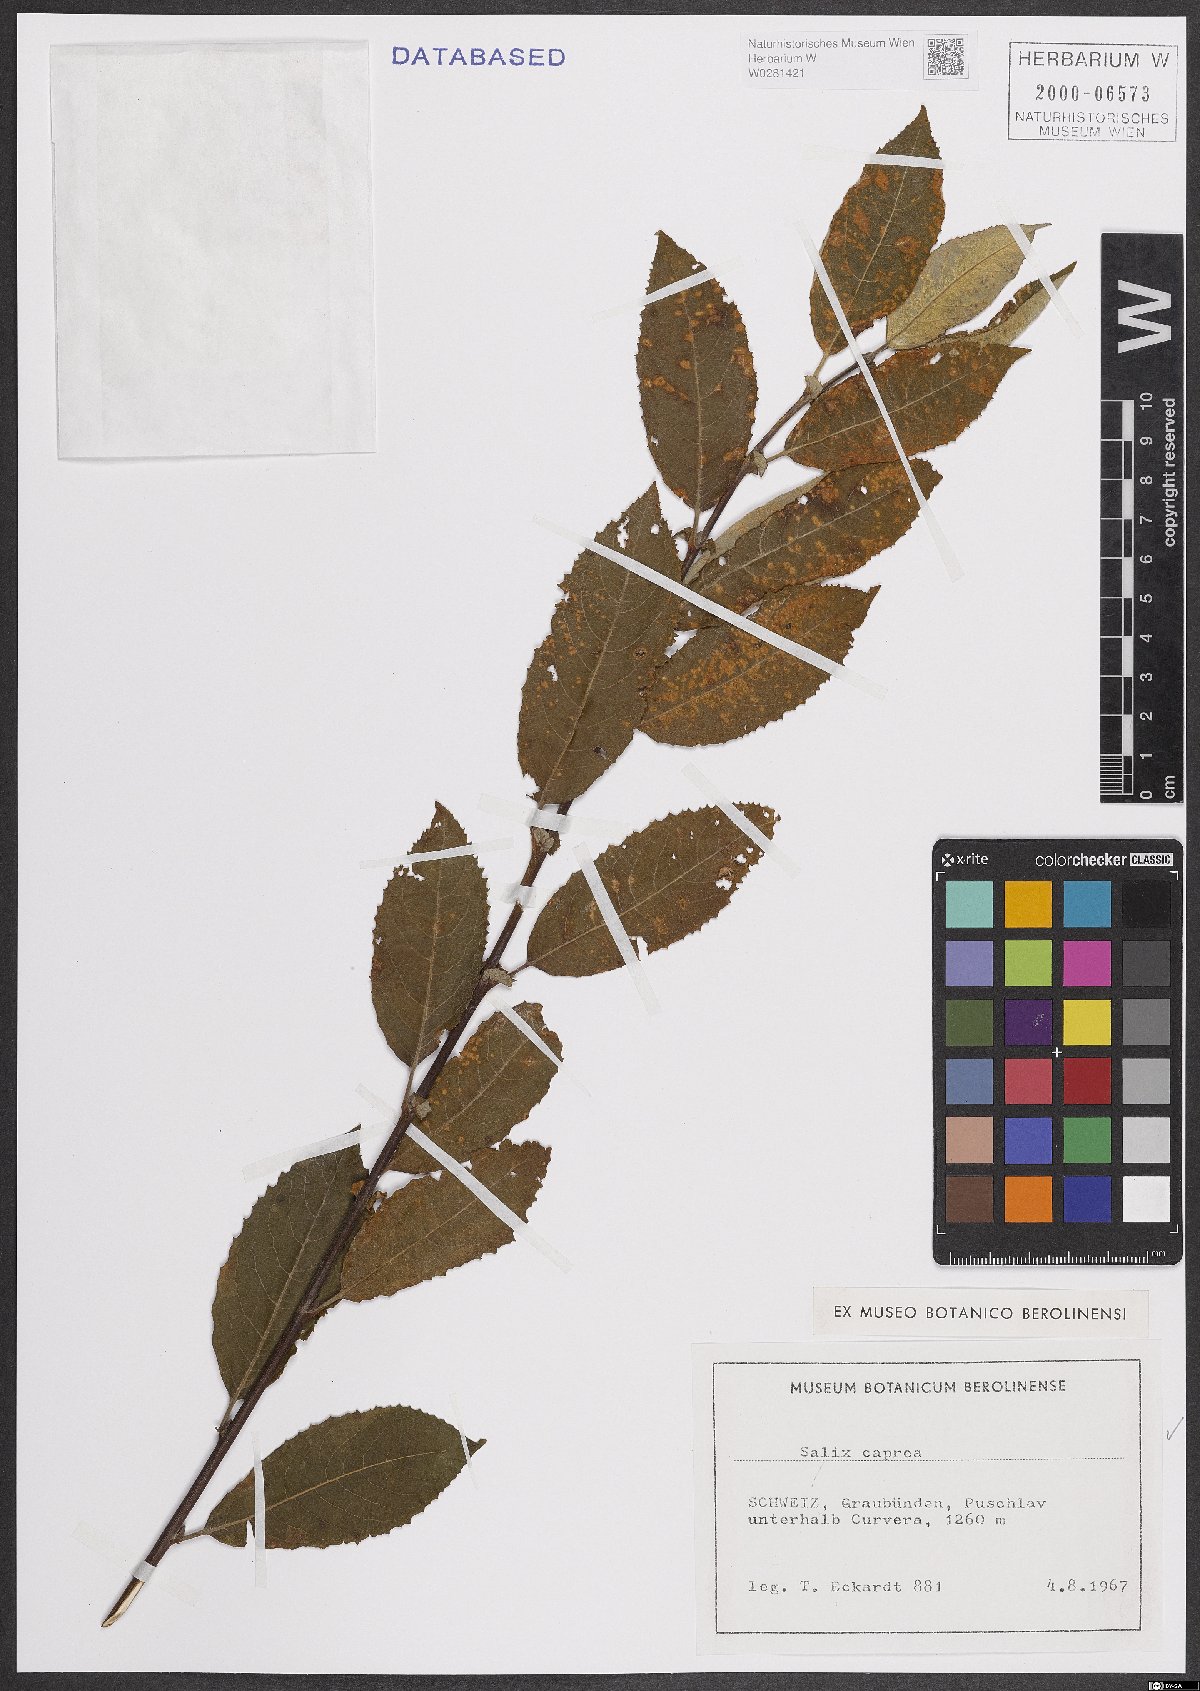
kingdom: Plantae
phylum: Tracheophyta
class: Magnoliopsida
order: Malpighiales
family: Salicaceae
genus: Salix
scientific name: Salix caprea
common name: Goat willow
